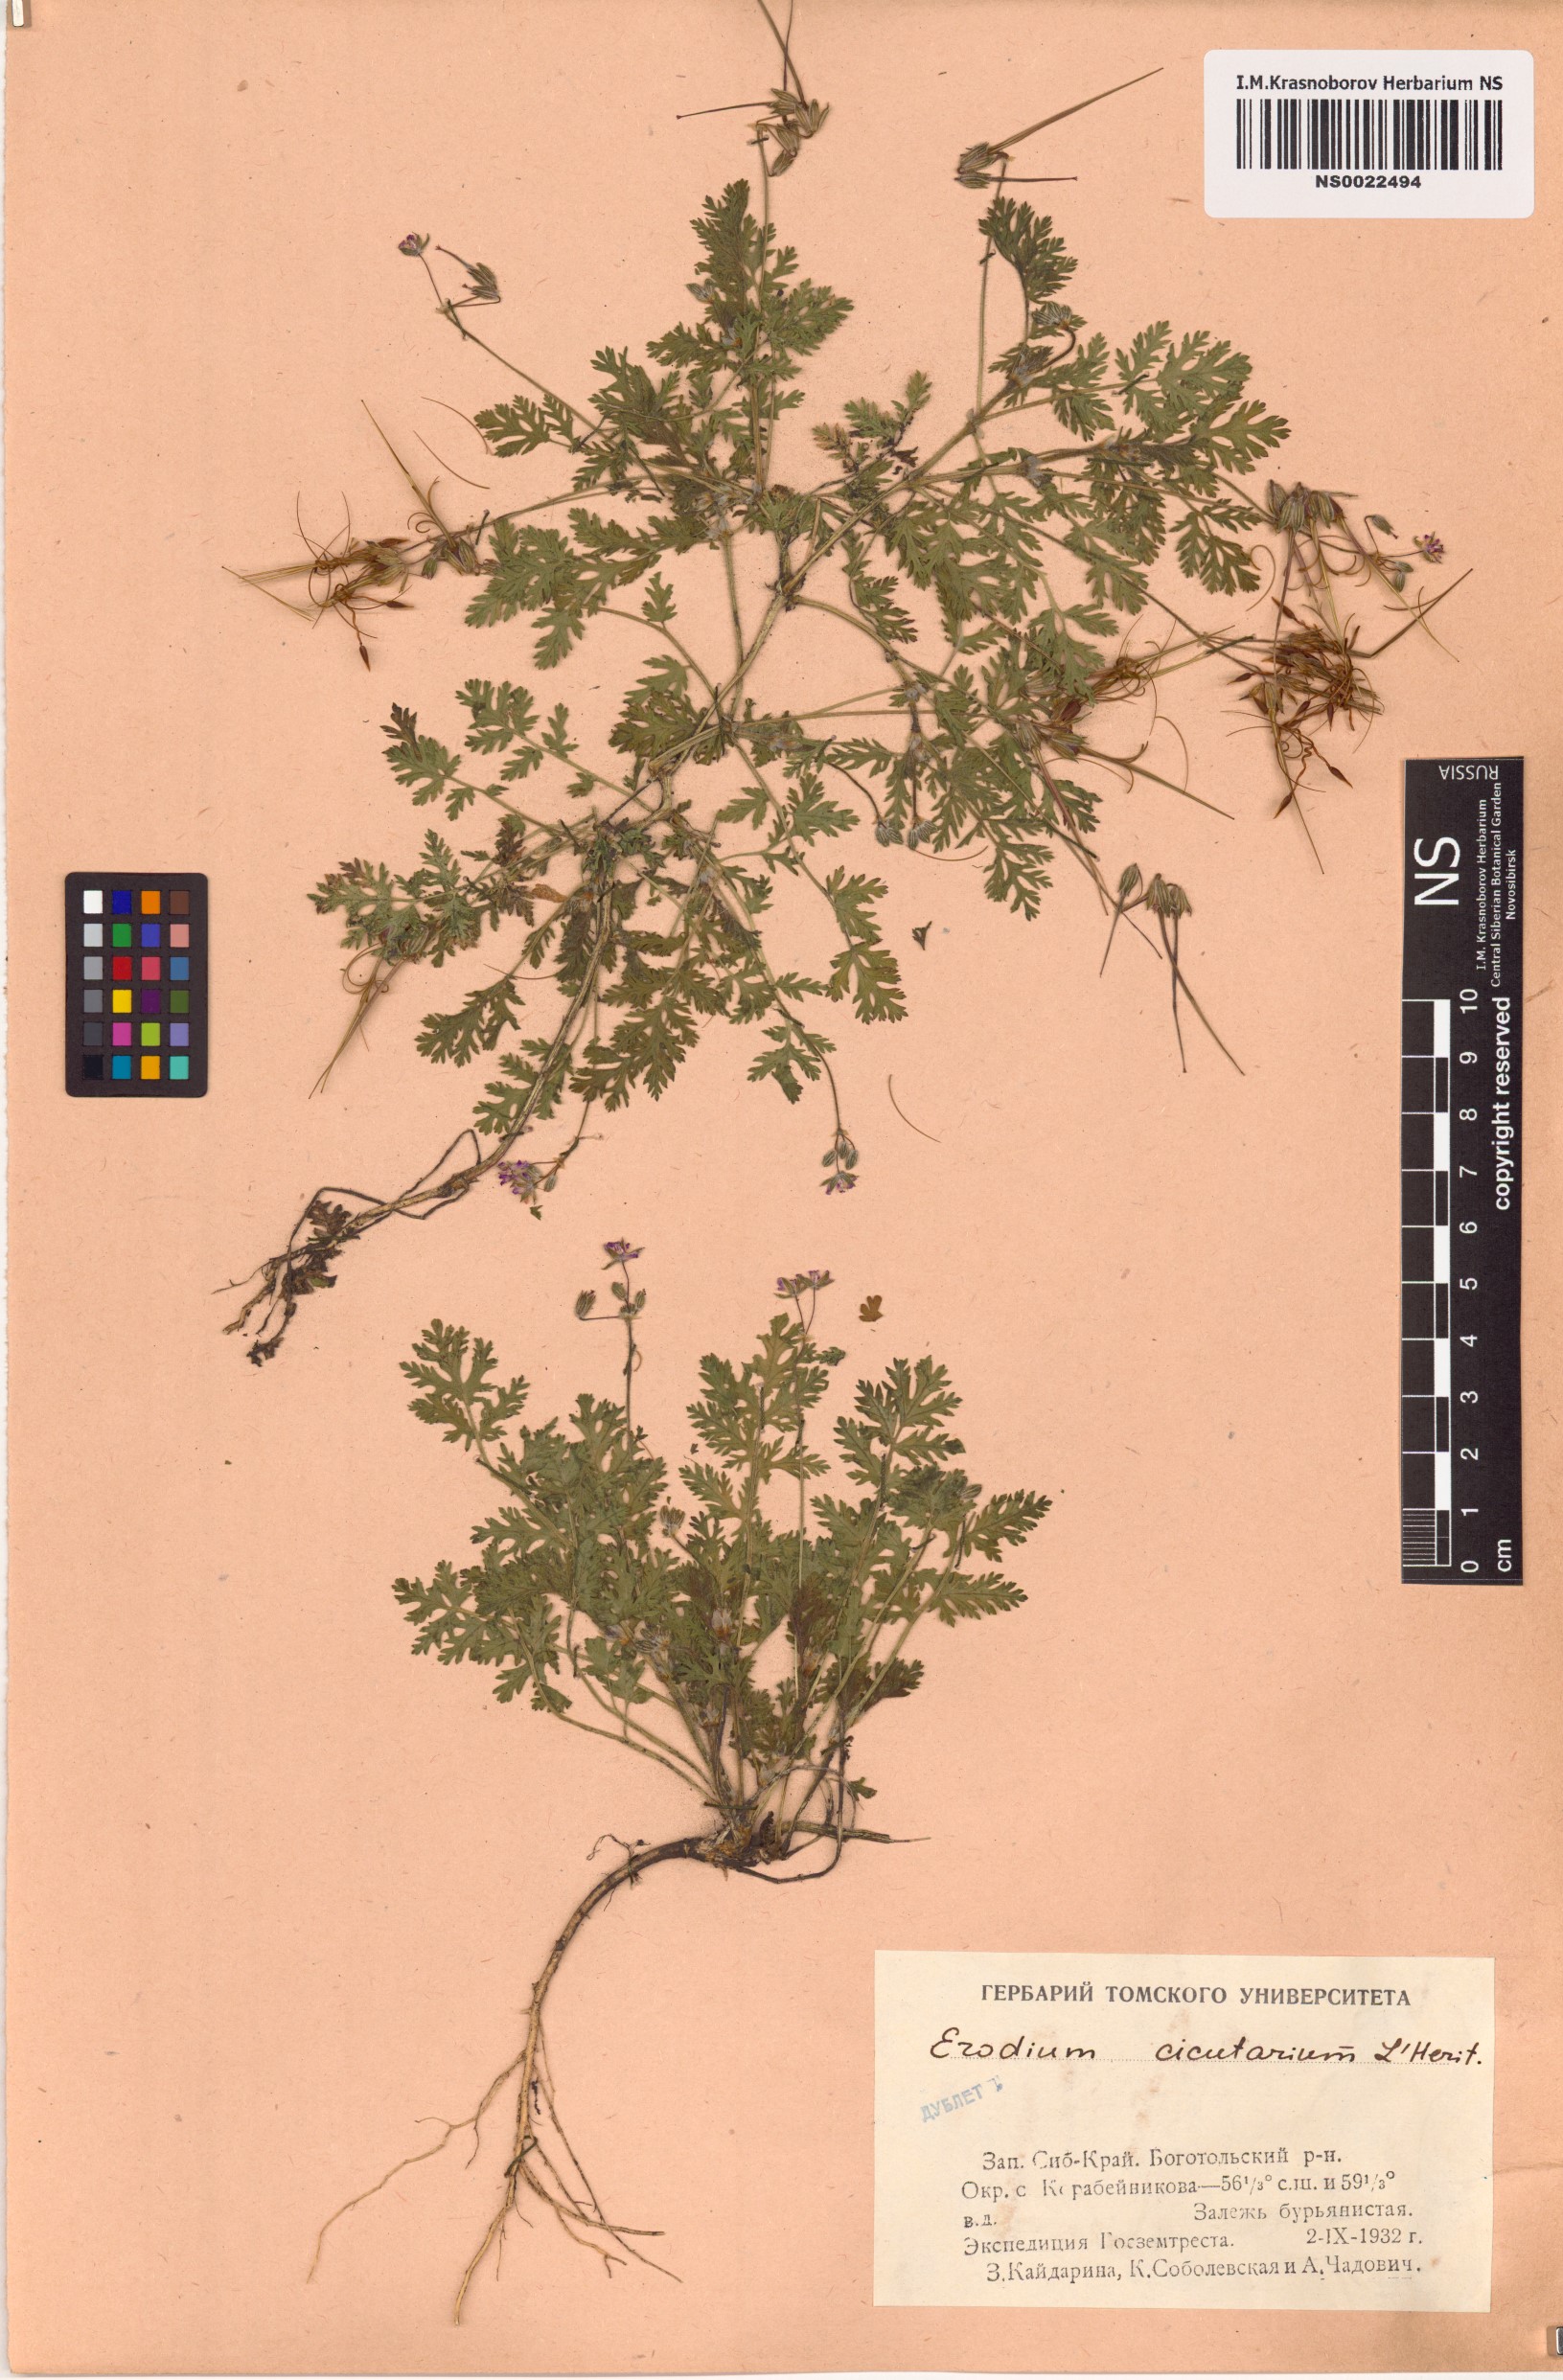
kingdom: Plantae
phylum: Tracheophyta
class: Magnoliopsida
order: Geraniales
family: Geraniaceae
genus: Erodium
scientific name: Erodium cicutarium
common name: Common stork's-bill
